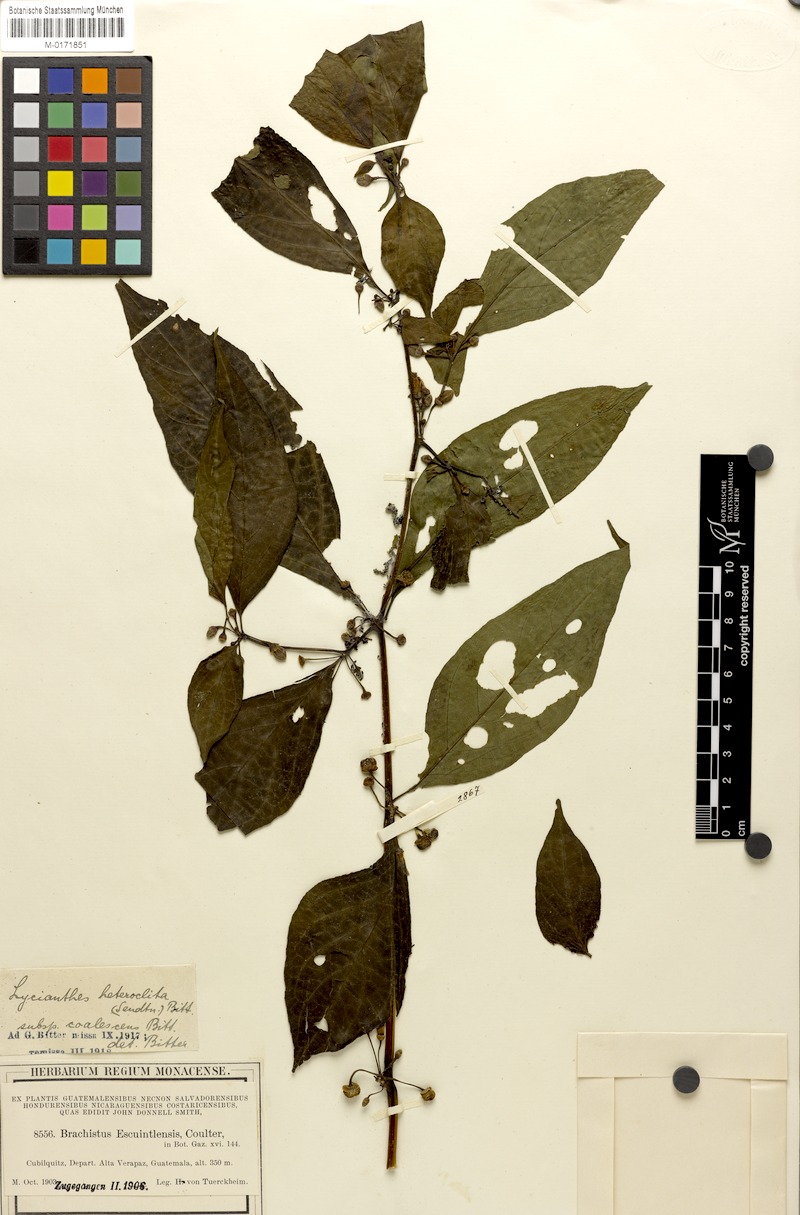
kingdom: Plantae
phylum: Tracheophyta
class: Magnoliopsida
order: Solanales
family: Solanaceae
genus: Lycianthes
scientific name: Lycianthes heteroclita
